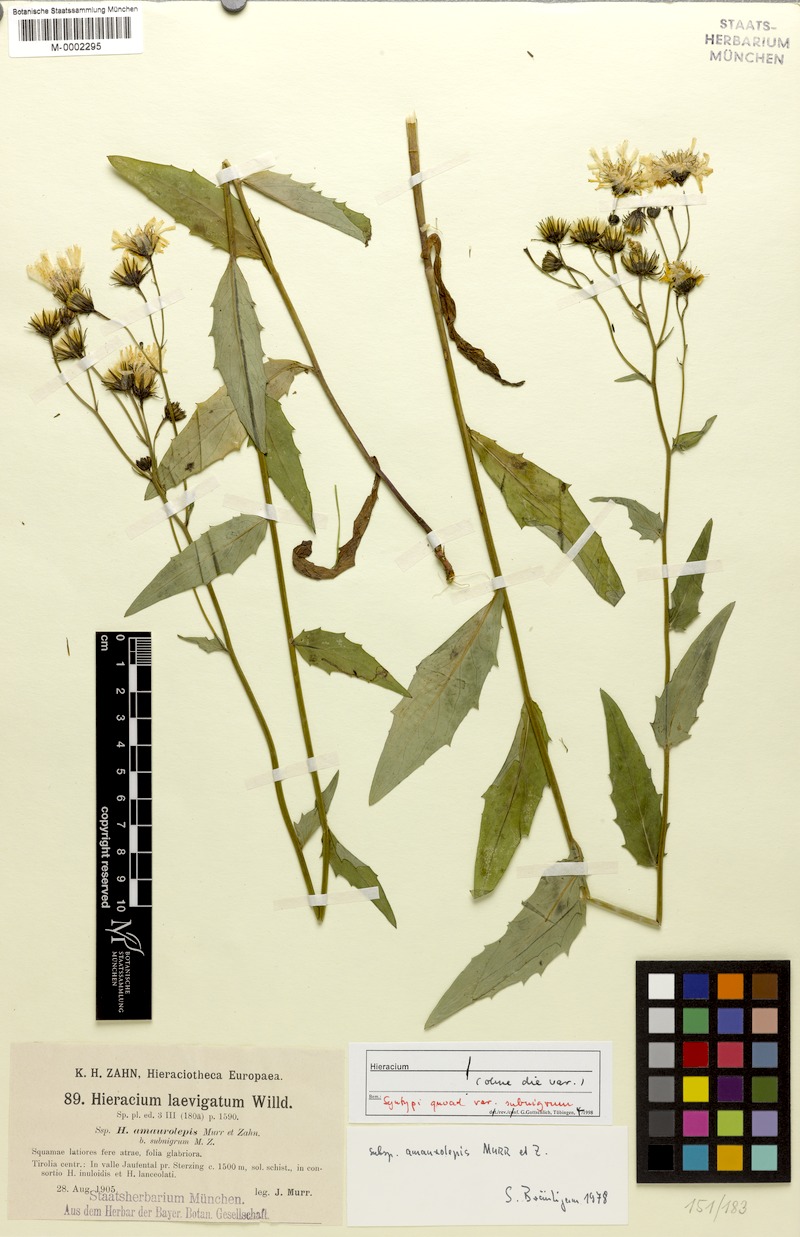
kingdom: Plantae
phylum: Tracheophyta
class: Magnoliopsida
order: Asterales
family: Asteraceae
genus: Hieracium
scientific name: Hieracium laevigatum
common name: Smooth hawkweed
